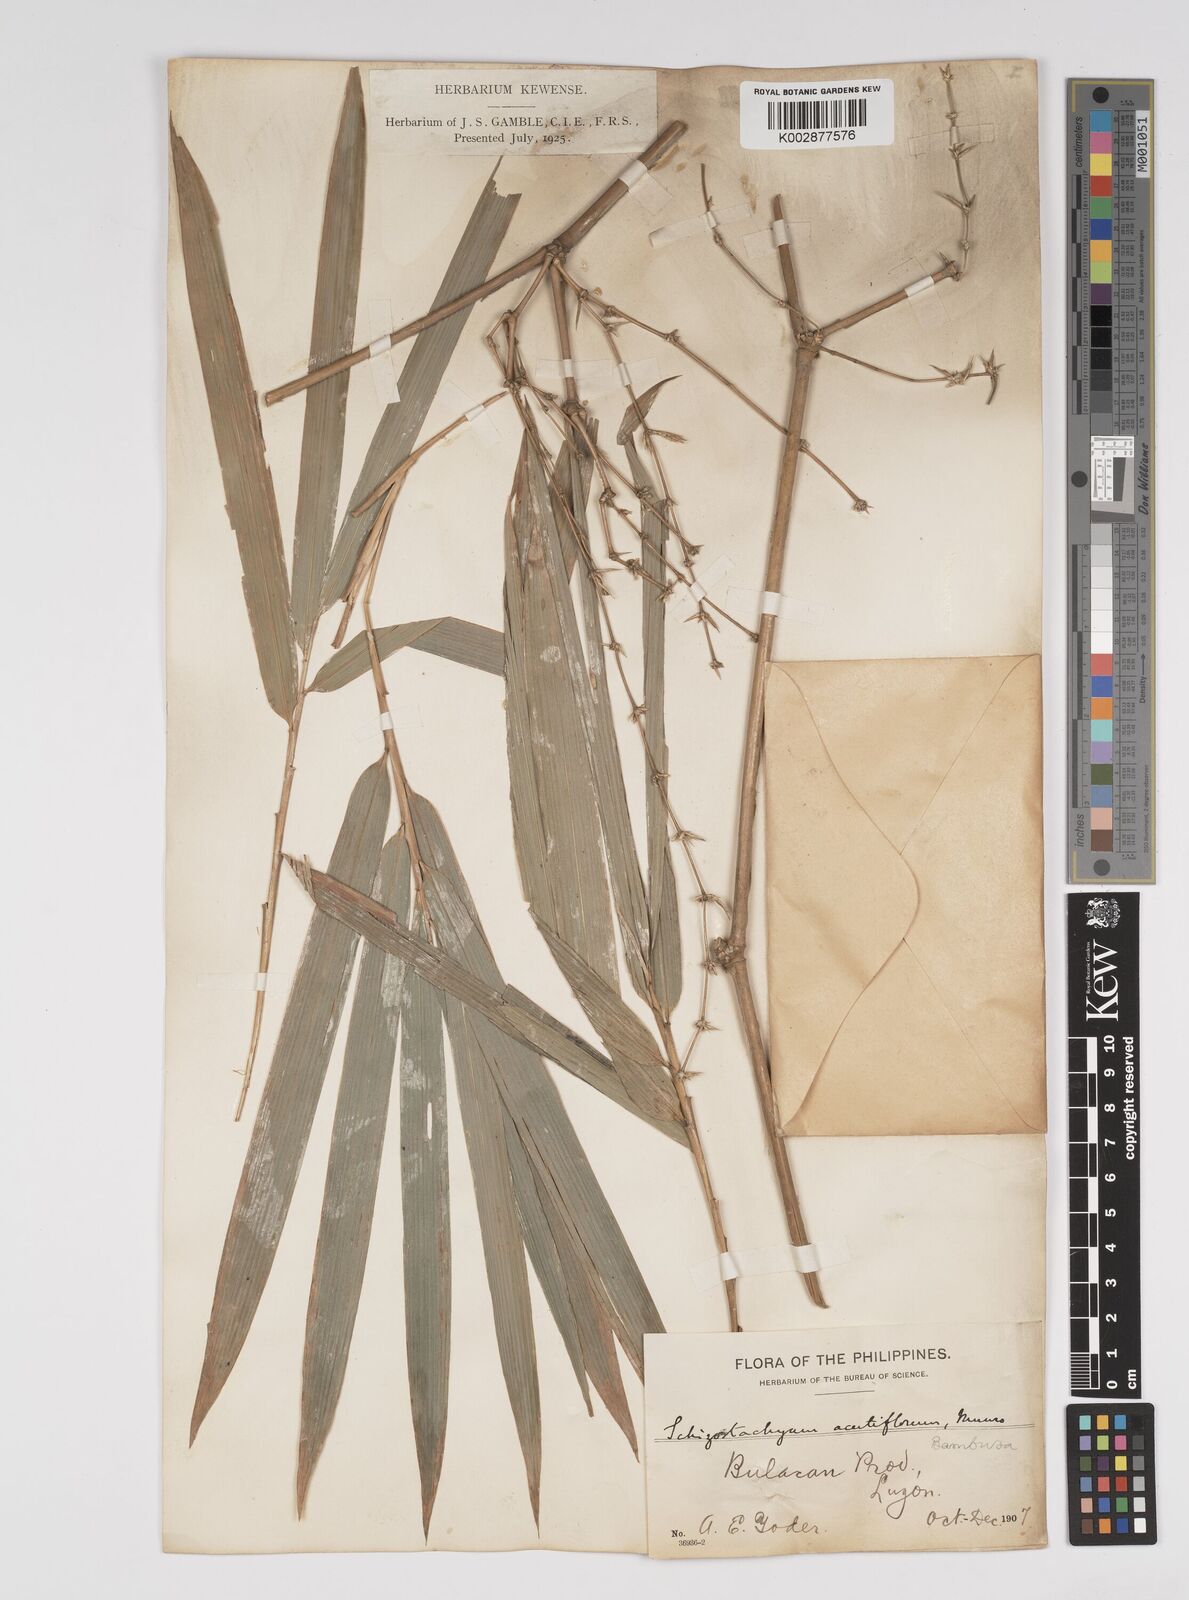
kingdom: Plantae
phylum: Tracheophyta
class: Liliopsida
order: Poales
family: Poaceae
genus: Bambusa
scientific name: Bambusa bambos
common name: Indian thorny bamboo
